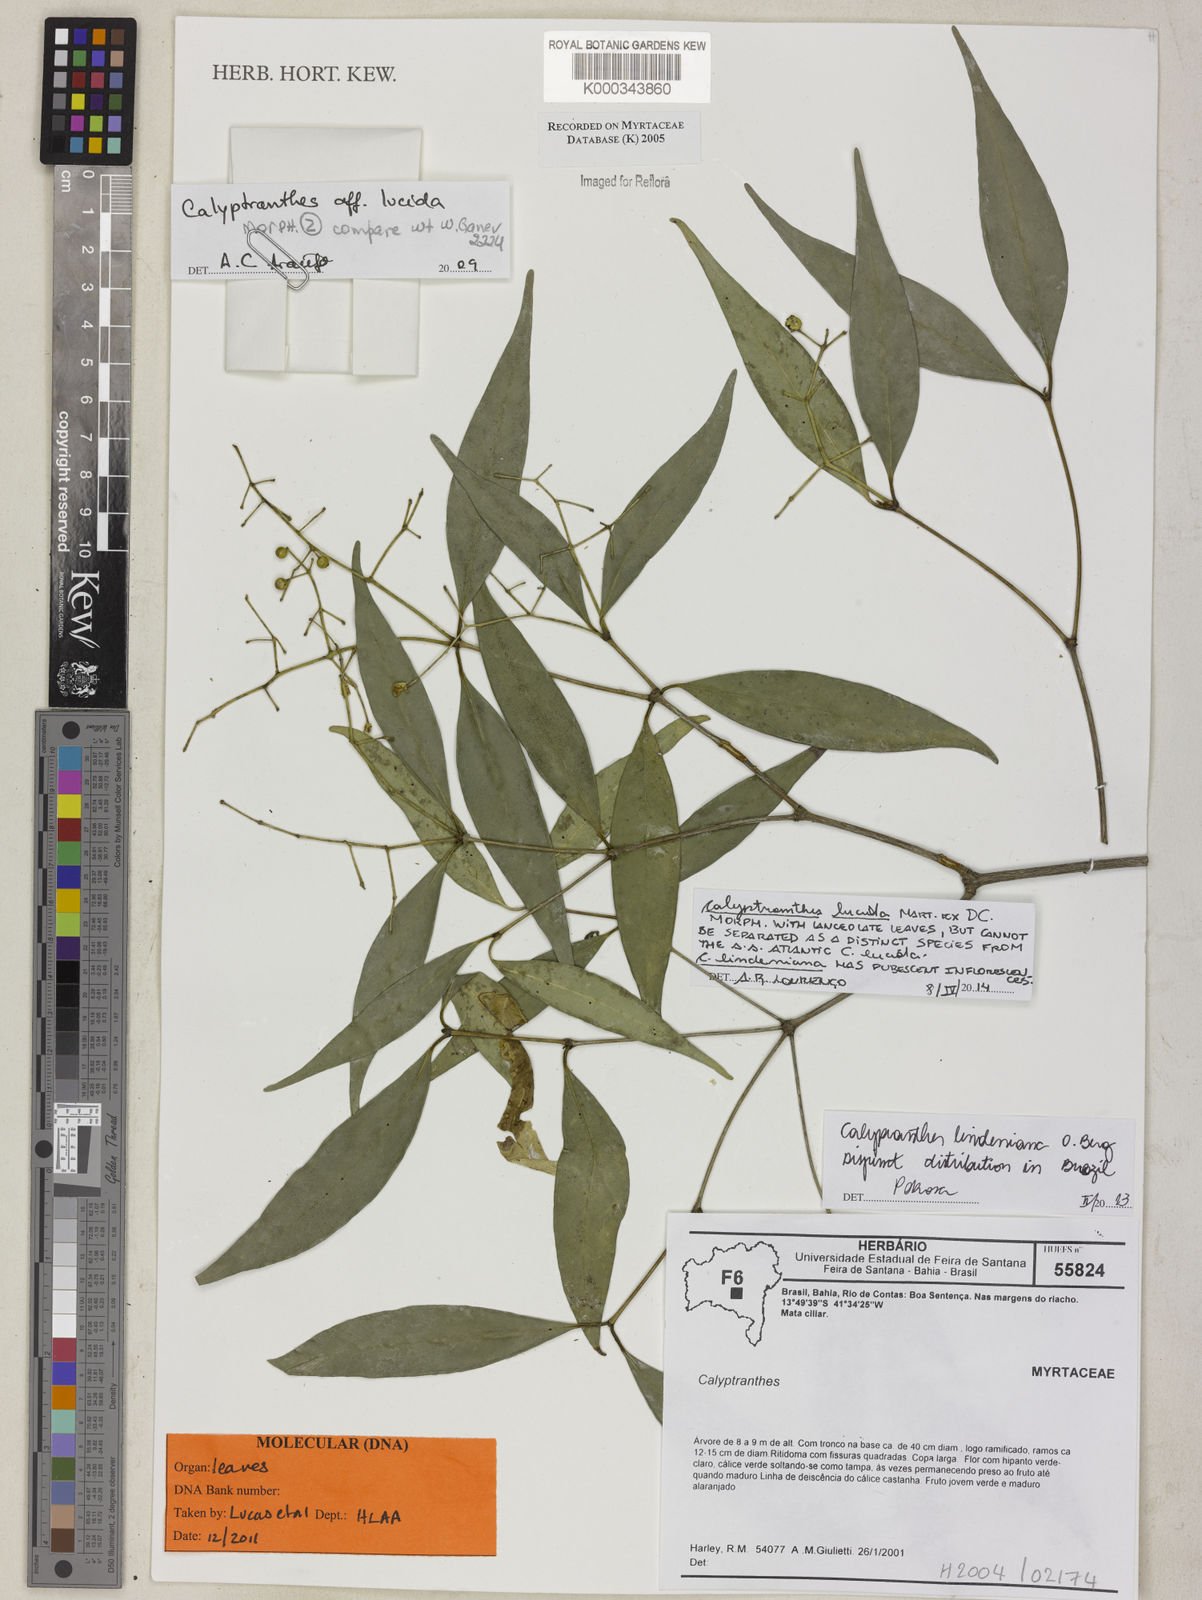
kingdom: Plantae
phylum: Tracheophyta
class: Magnoliopsida
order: Myrtales
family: Myrtaceae
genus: Calyptranthes
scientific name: Calyptranthes
